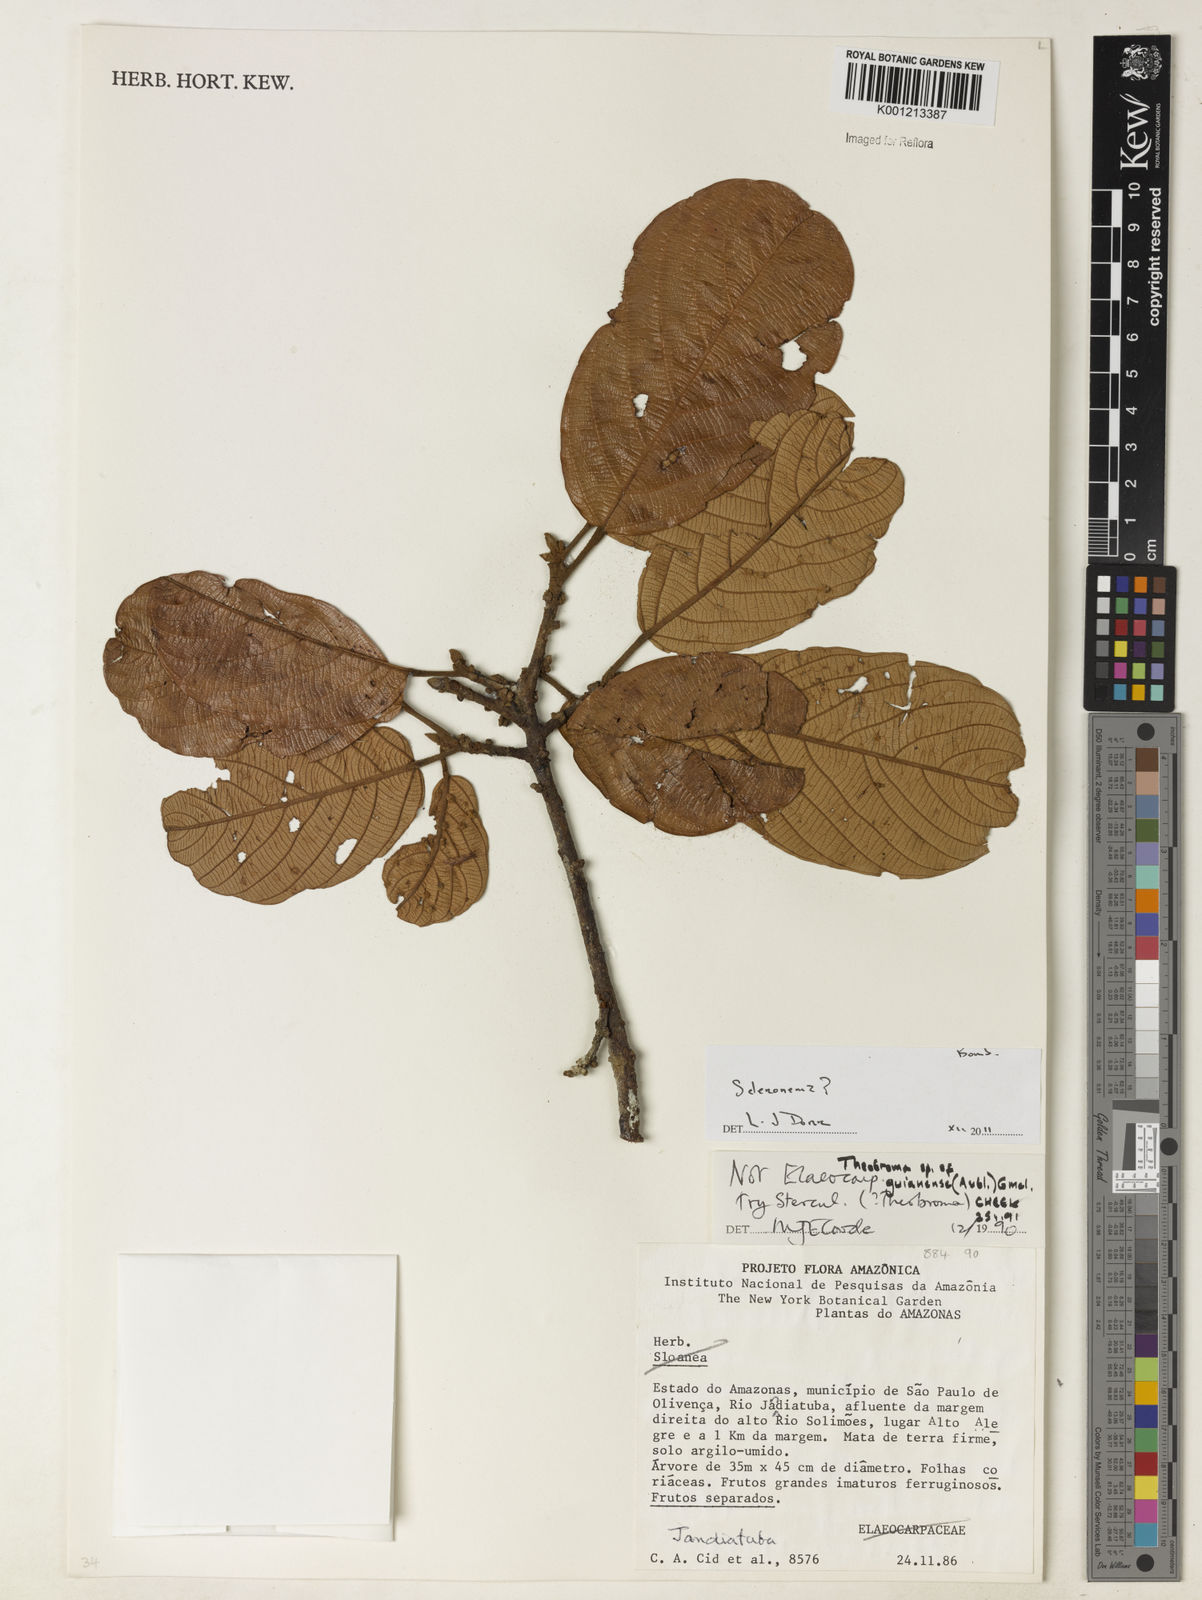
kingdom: Plantae
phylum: Tracheophyta
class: Magnoliopsida
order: Malvales
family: Malvaceae
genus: Theobroma
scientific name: Theobroma
